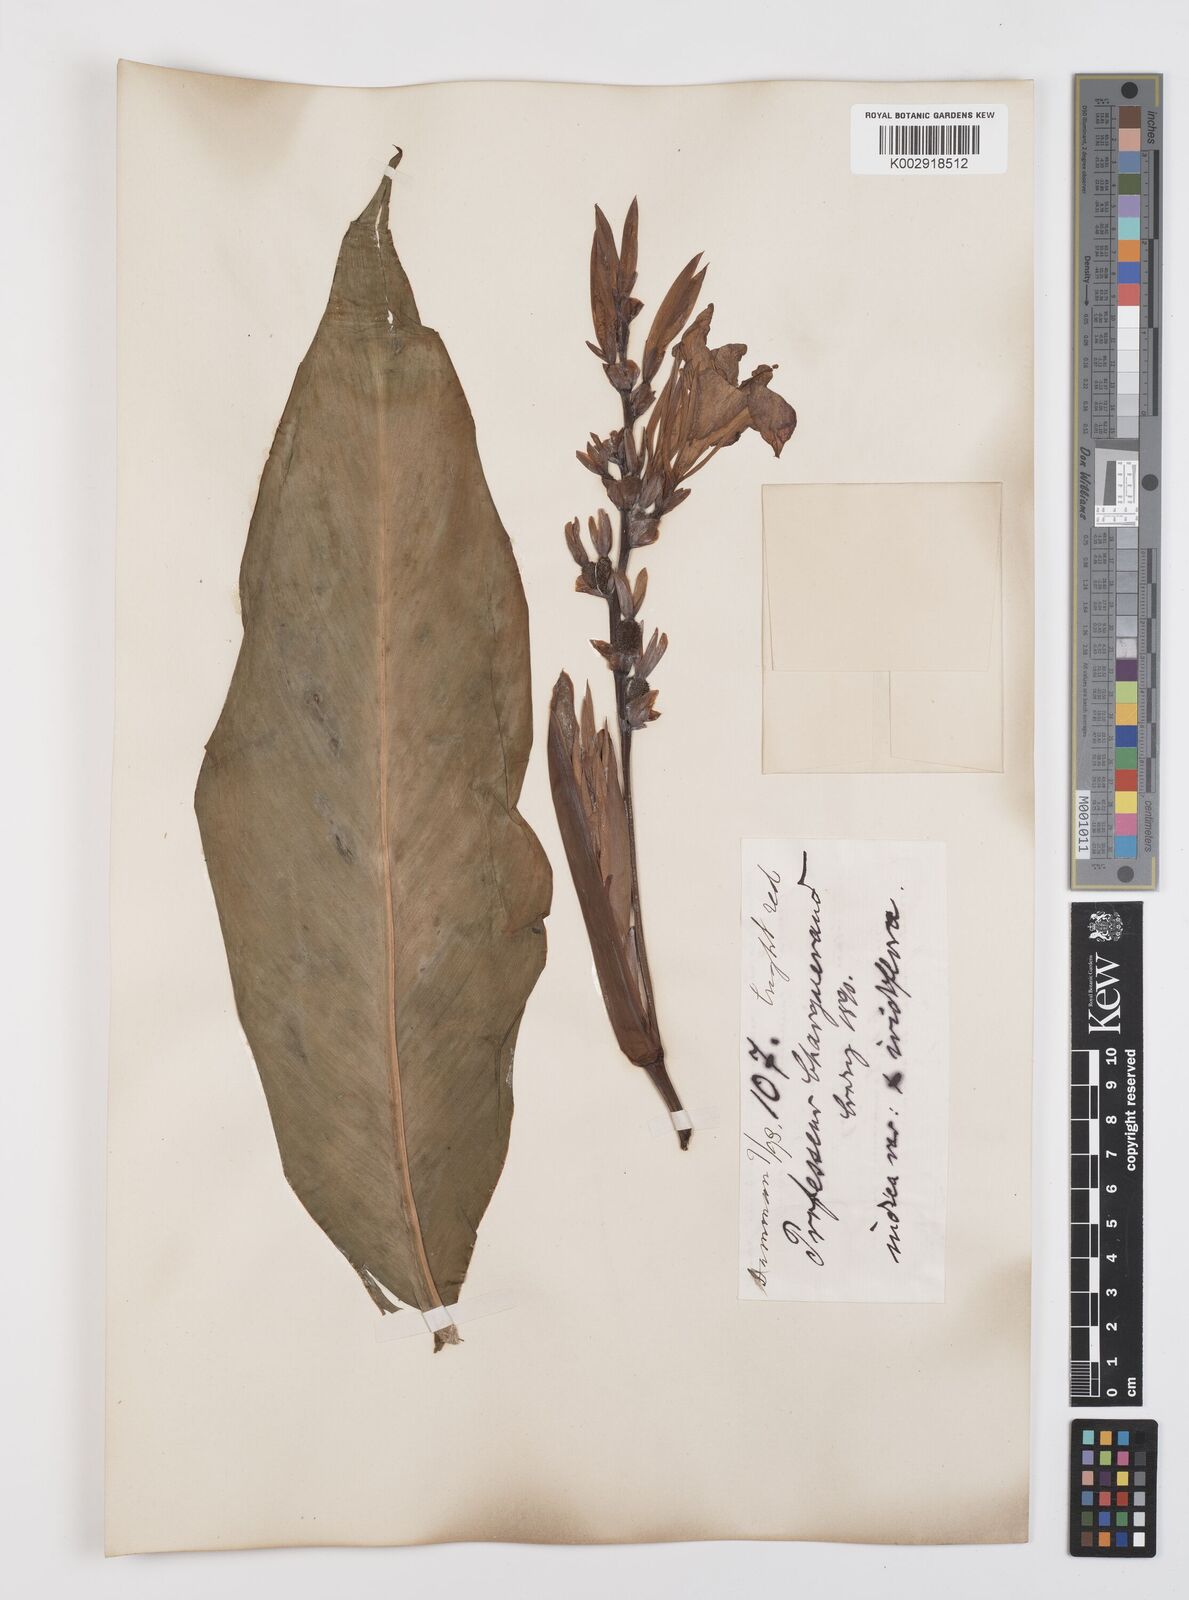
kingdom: Plantae
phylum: Tracheophyta
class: Liliopsida
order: Zingiberales
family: Cannaceae
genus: Canna
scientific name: Canna indica
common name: Indian shot
